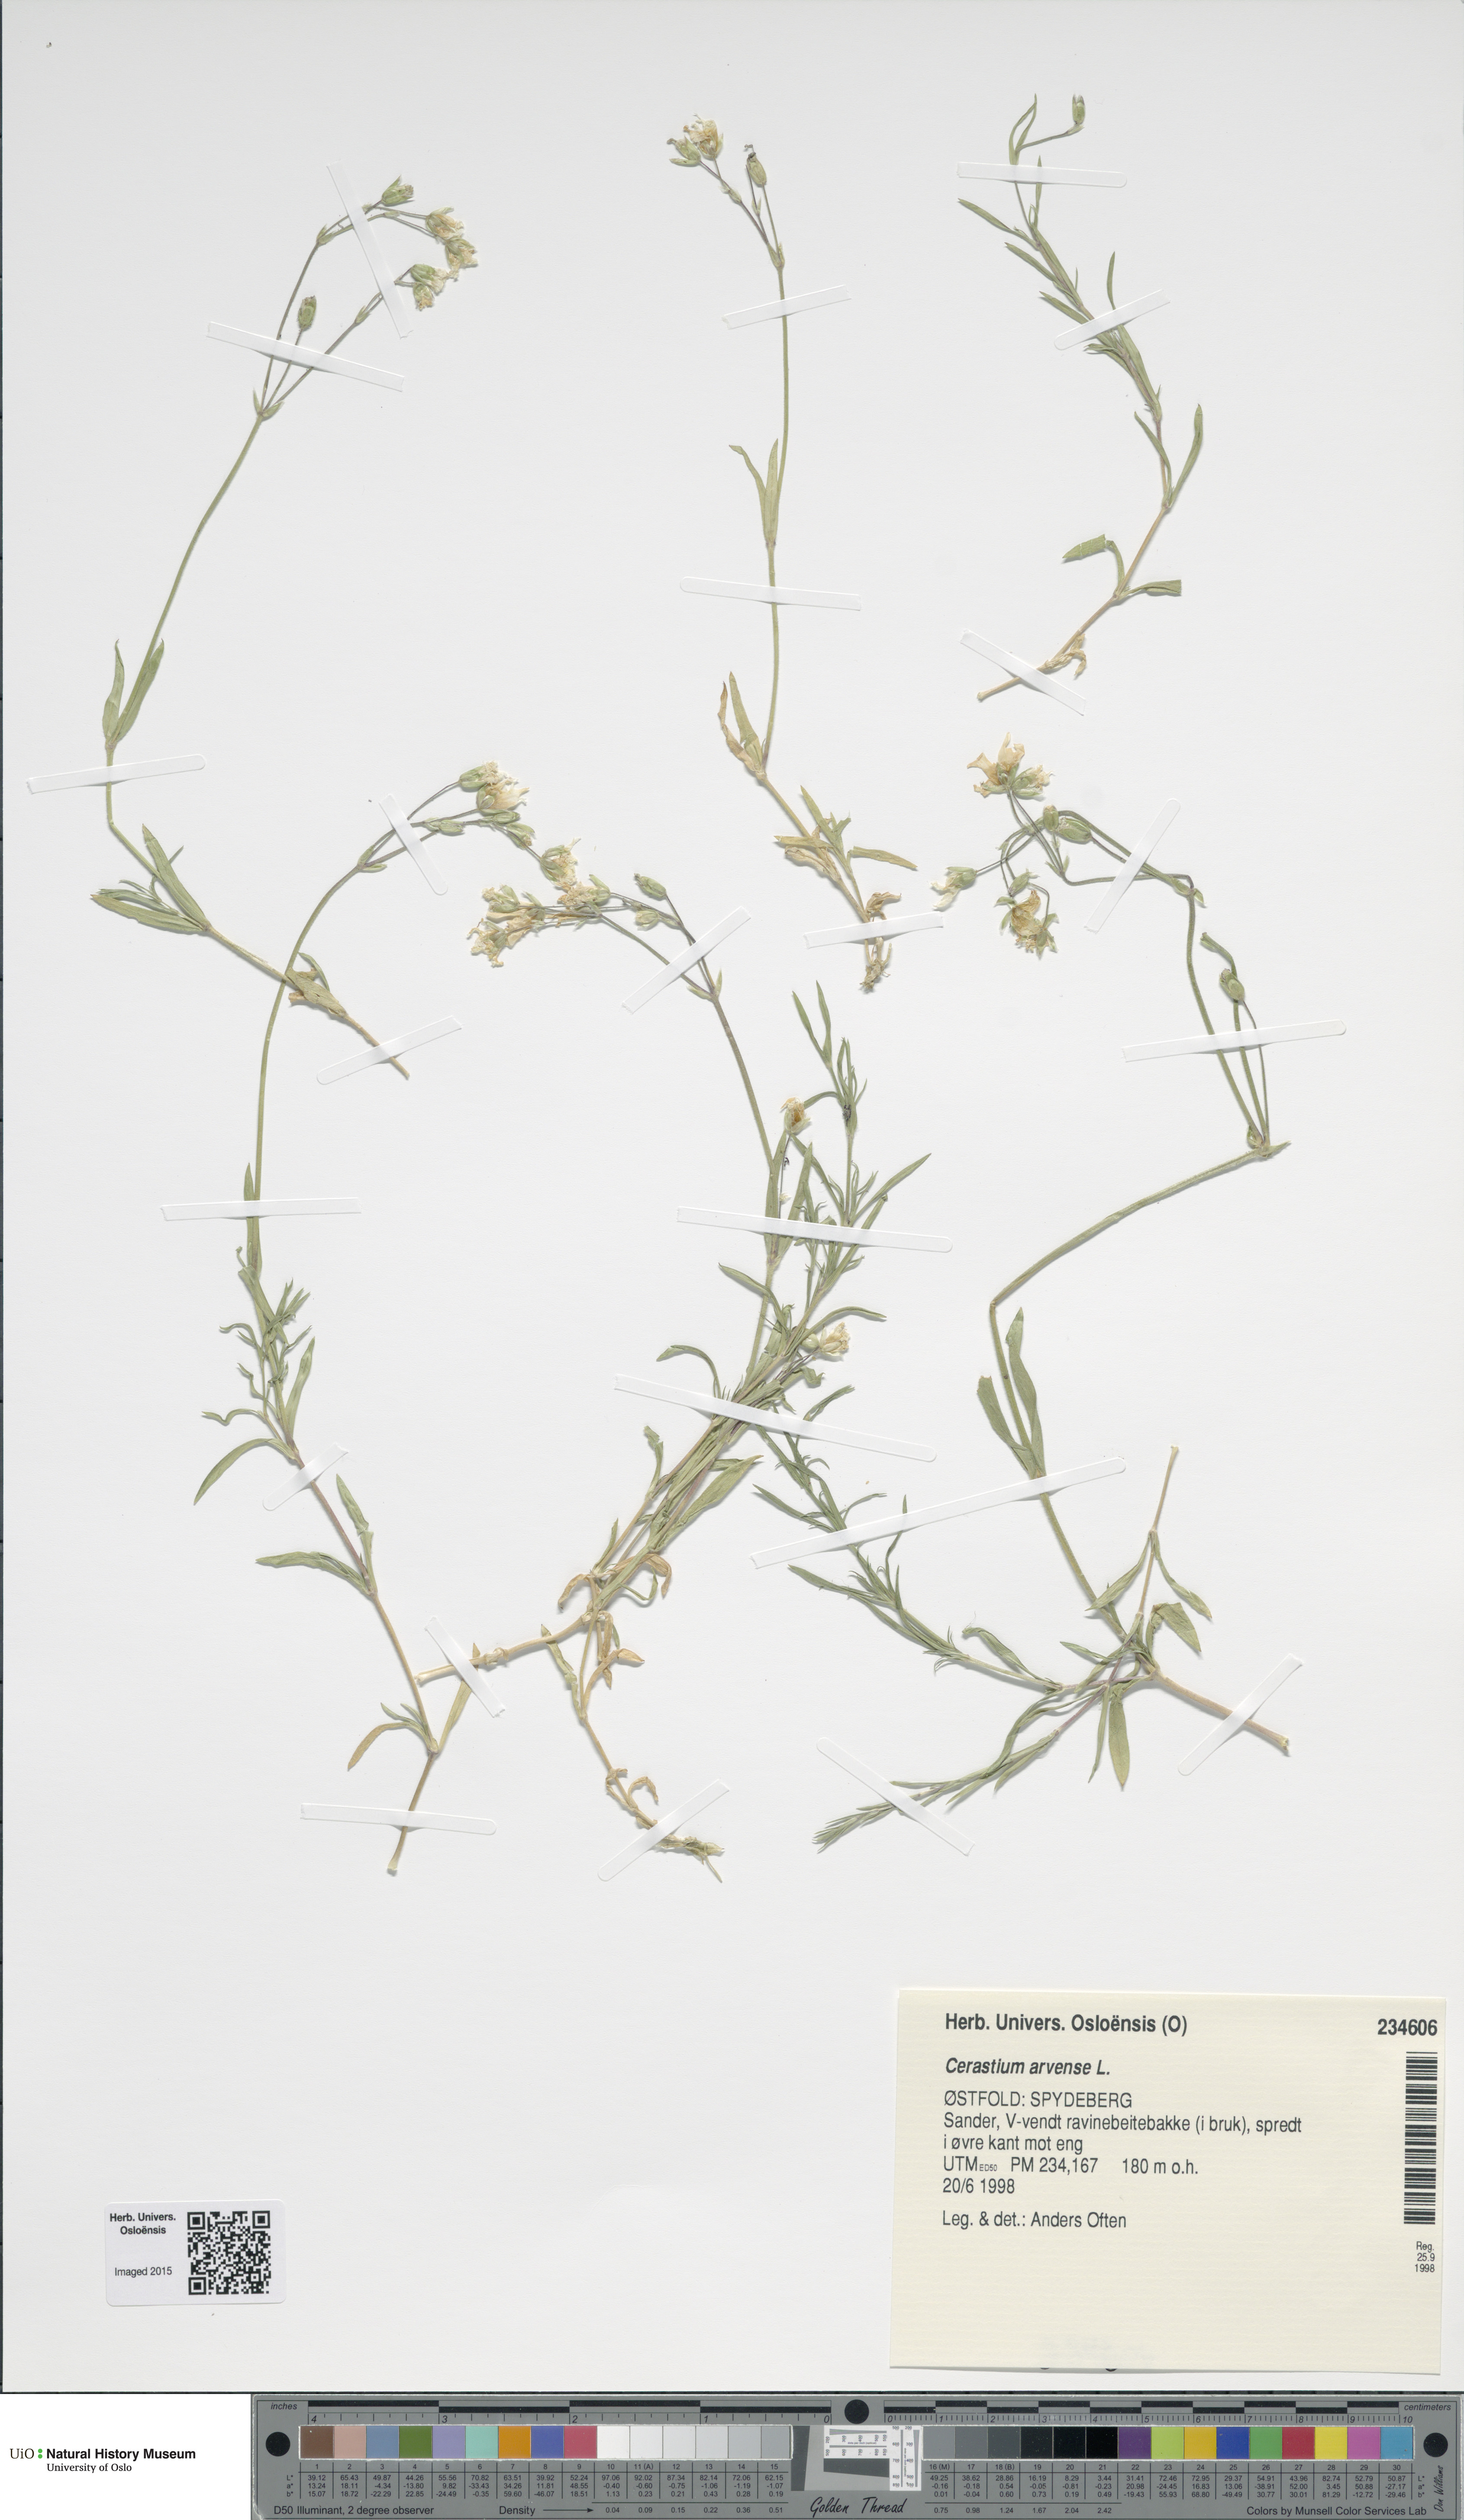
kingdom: Plantae
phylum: Tracheophyta
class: Magnoliopsida
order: Caryophyllales
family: Caryophyllaceae
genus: Cerastium
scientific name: Cerastium arvense
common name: Field mouse-ear
